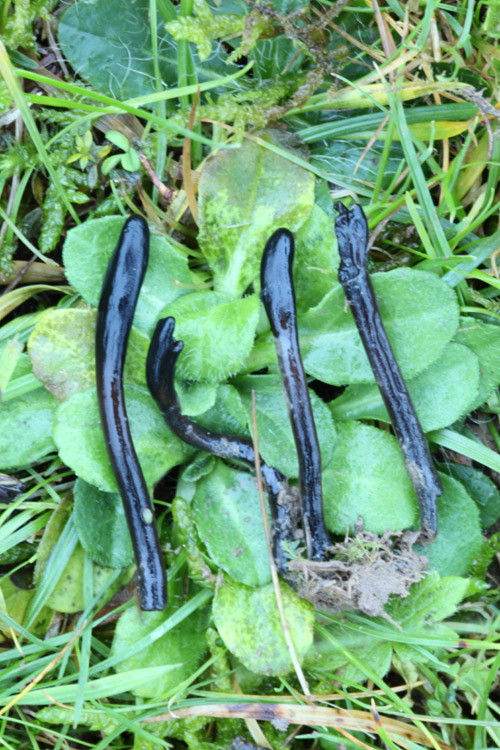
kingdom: Fungi
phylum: Ascomycota
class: Geoglossomycetes
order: Geoglossales
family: Geoglossaceae
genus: Glutinoglossum
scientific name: Glutinoglossum glutinosum
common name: slimet jordtunge
